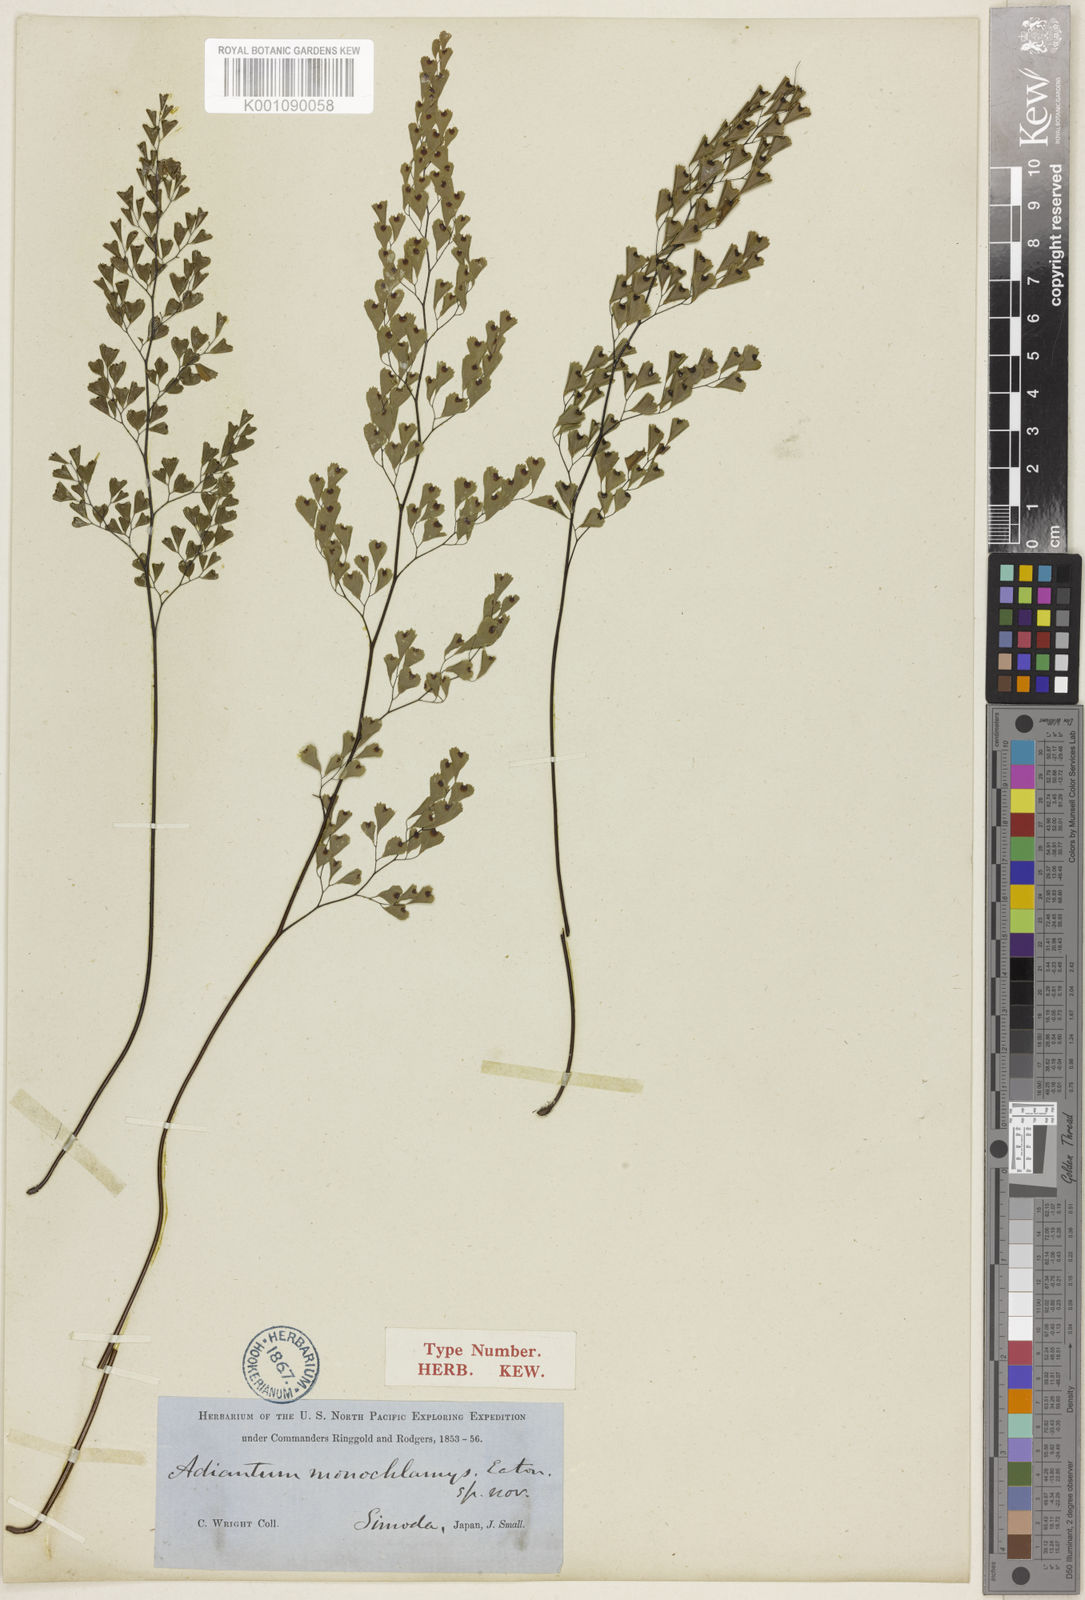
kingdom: Plantae
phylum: Tracheophyta
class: Polypodiopsida
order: Polypodiales
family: Pteridaceae
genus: Adiantum
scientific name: Adiantum monochlamys
